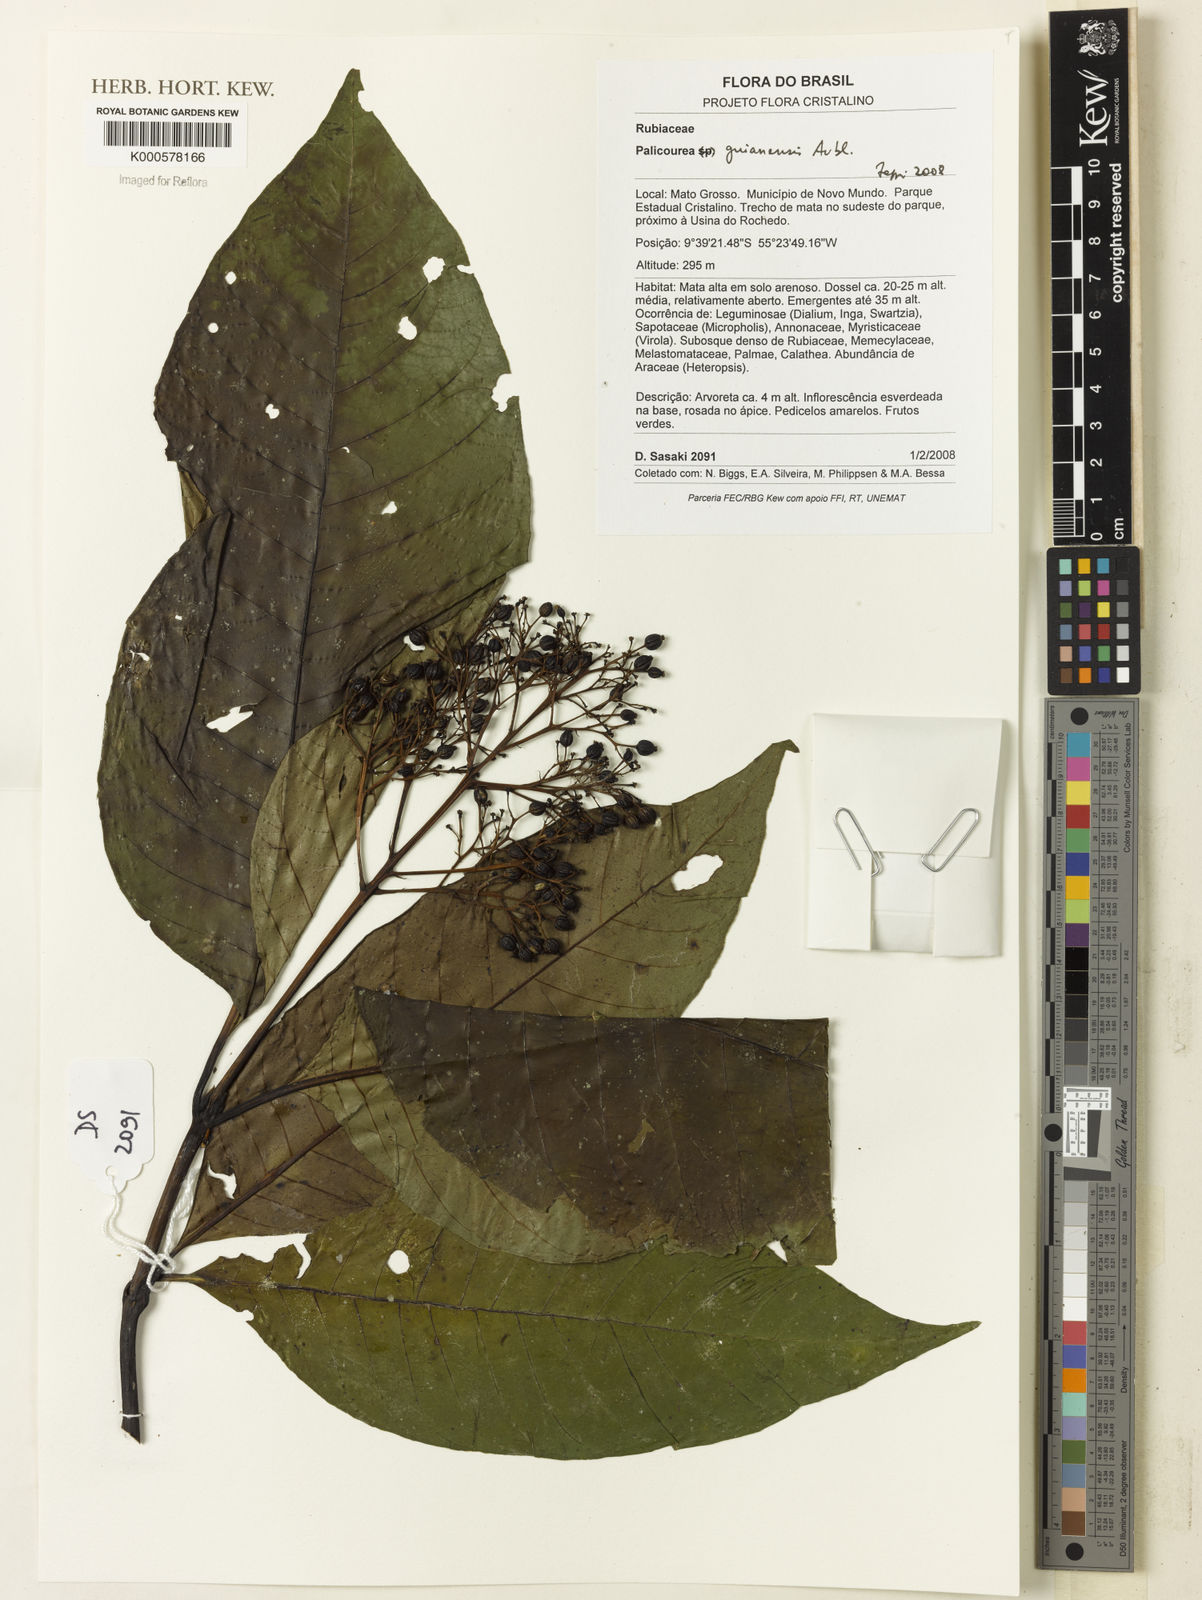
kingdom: Plantae
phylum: Tracheophyta
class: Magnoliopsida
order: Gentianales
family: Rubiaceae
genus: Palicourea
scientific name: Palicourea guianensis
